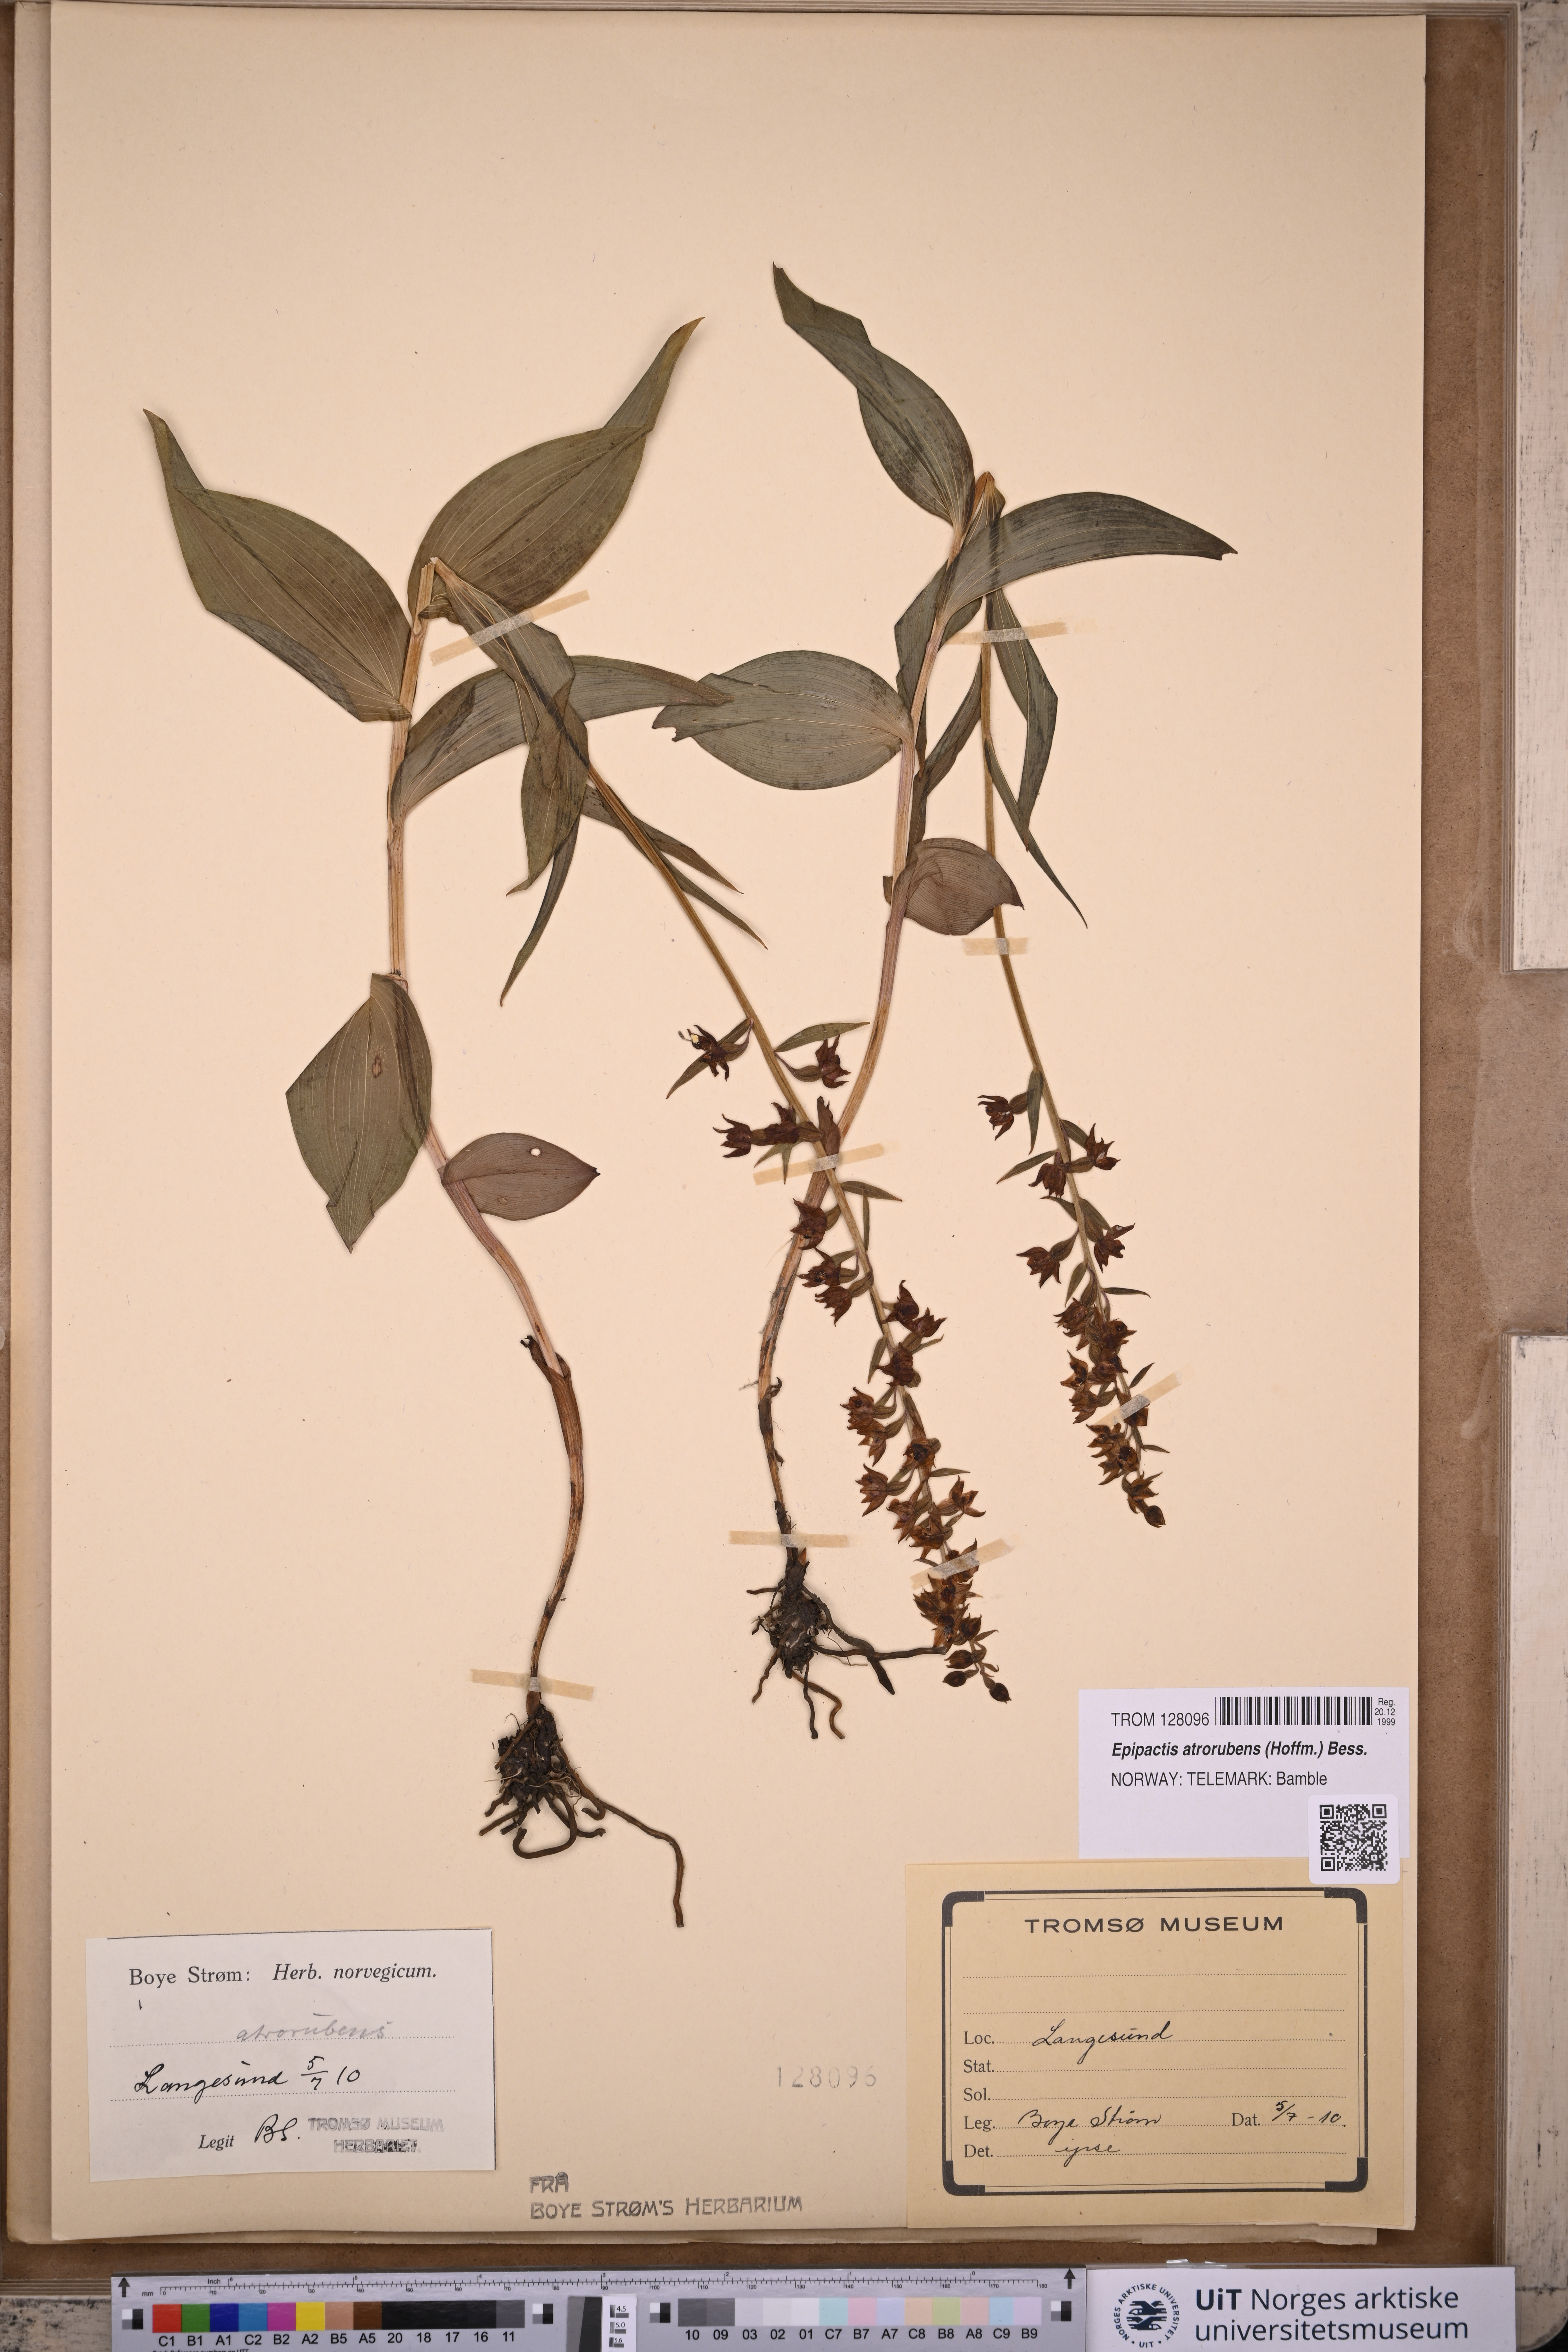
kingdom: Plantae
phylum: Tracheophyta
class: Liliopsida
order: Asparagales
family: Orchidaceae
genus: Epipactis
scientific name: Epipactis atrorubens
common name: Dark-red helleborine
